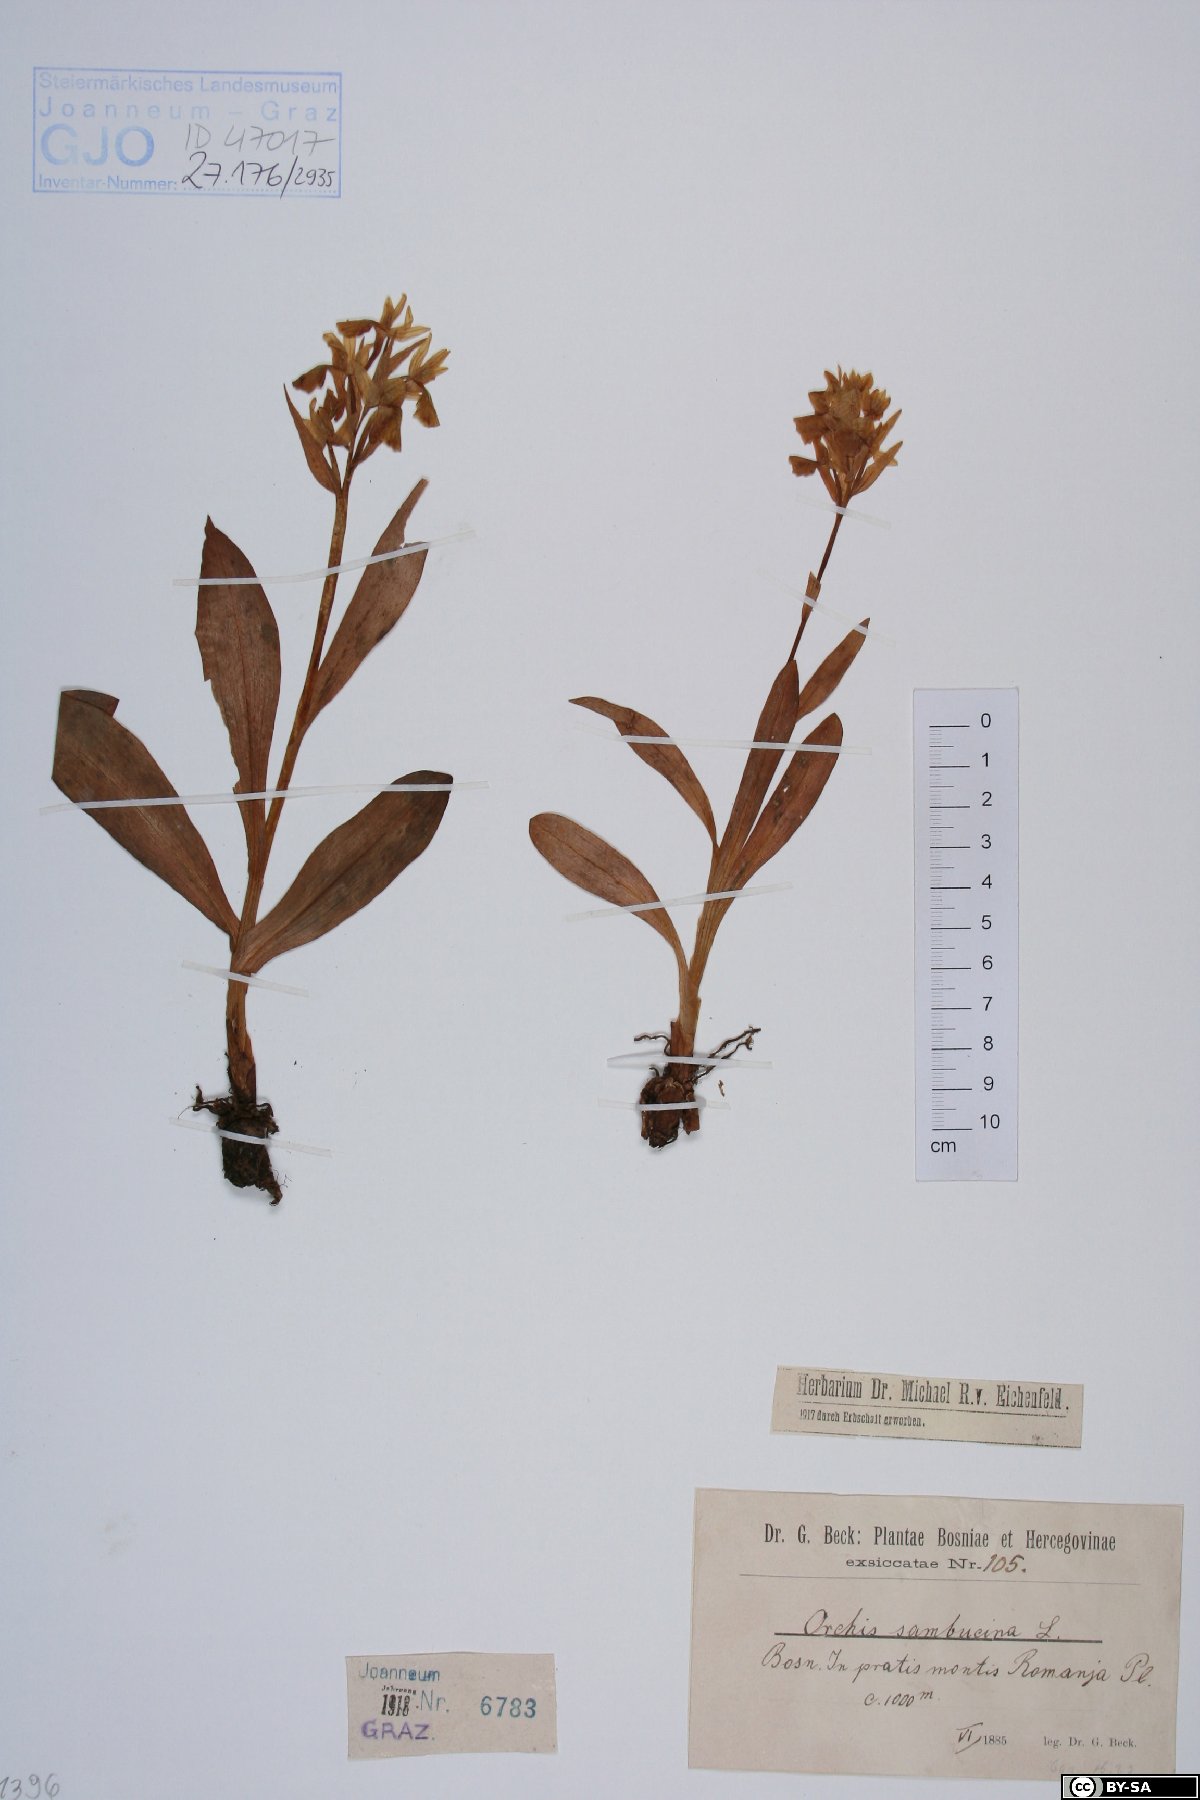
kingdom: Plantae
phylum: Tracheophyta
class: Liliopsida
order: Asparagales
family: Orchidaceae
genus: Dactylorhiza
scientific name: Dactylorhiza sambucina
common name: Elder-flowered orchid
